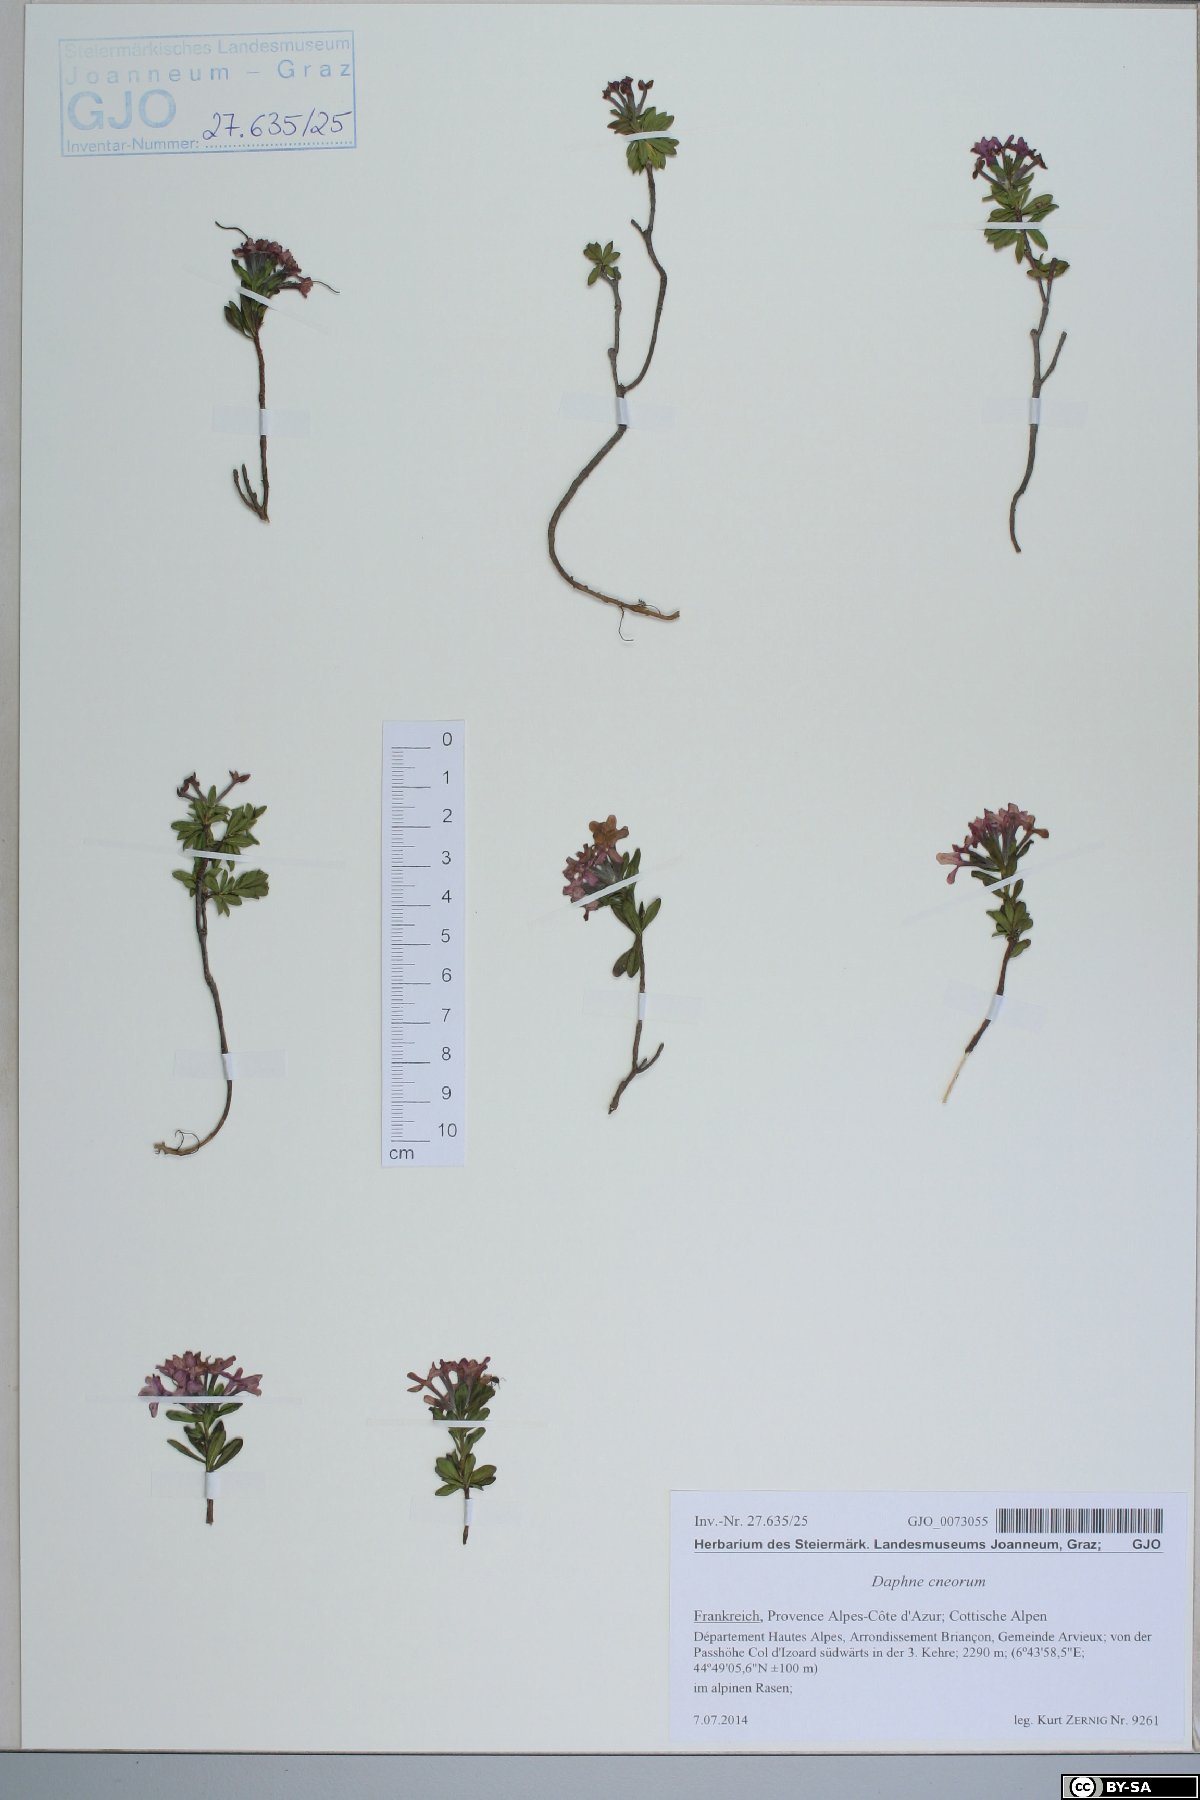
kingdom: Plantae
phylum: Tracheophyta
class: Magnoliopsida
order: Malvales
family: Thymelaeaceae
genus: Daphne
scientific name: Daphne cneorum
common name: Garland-flower
